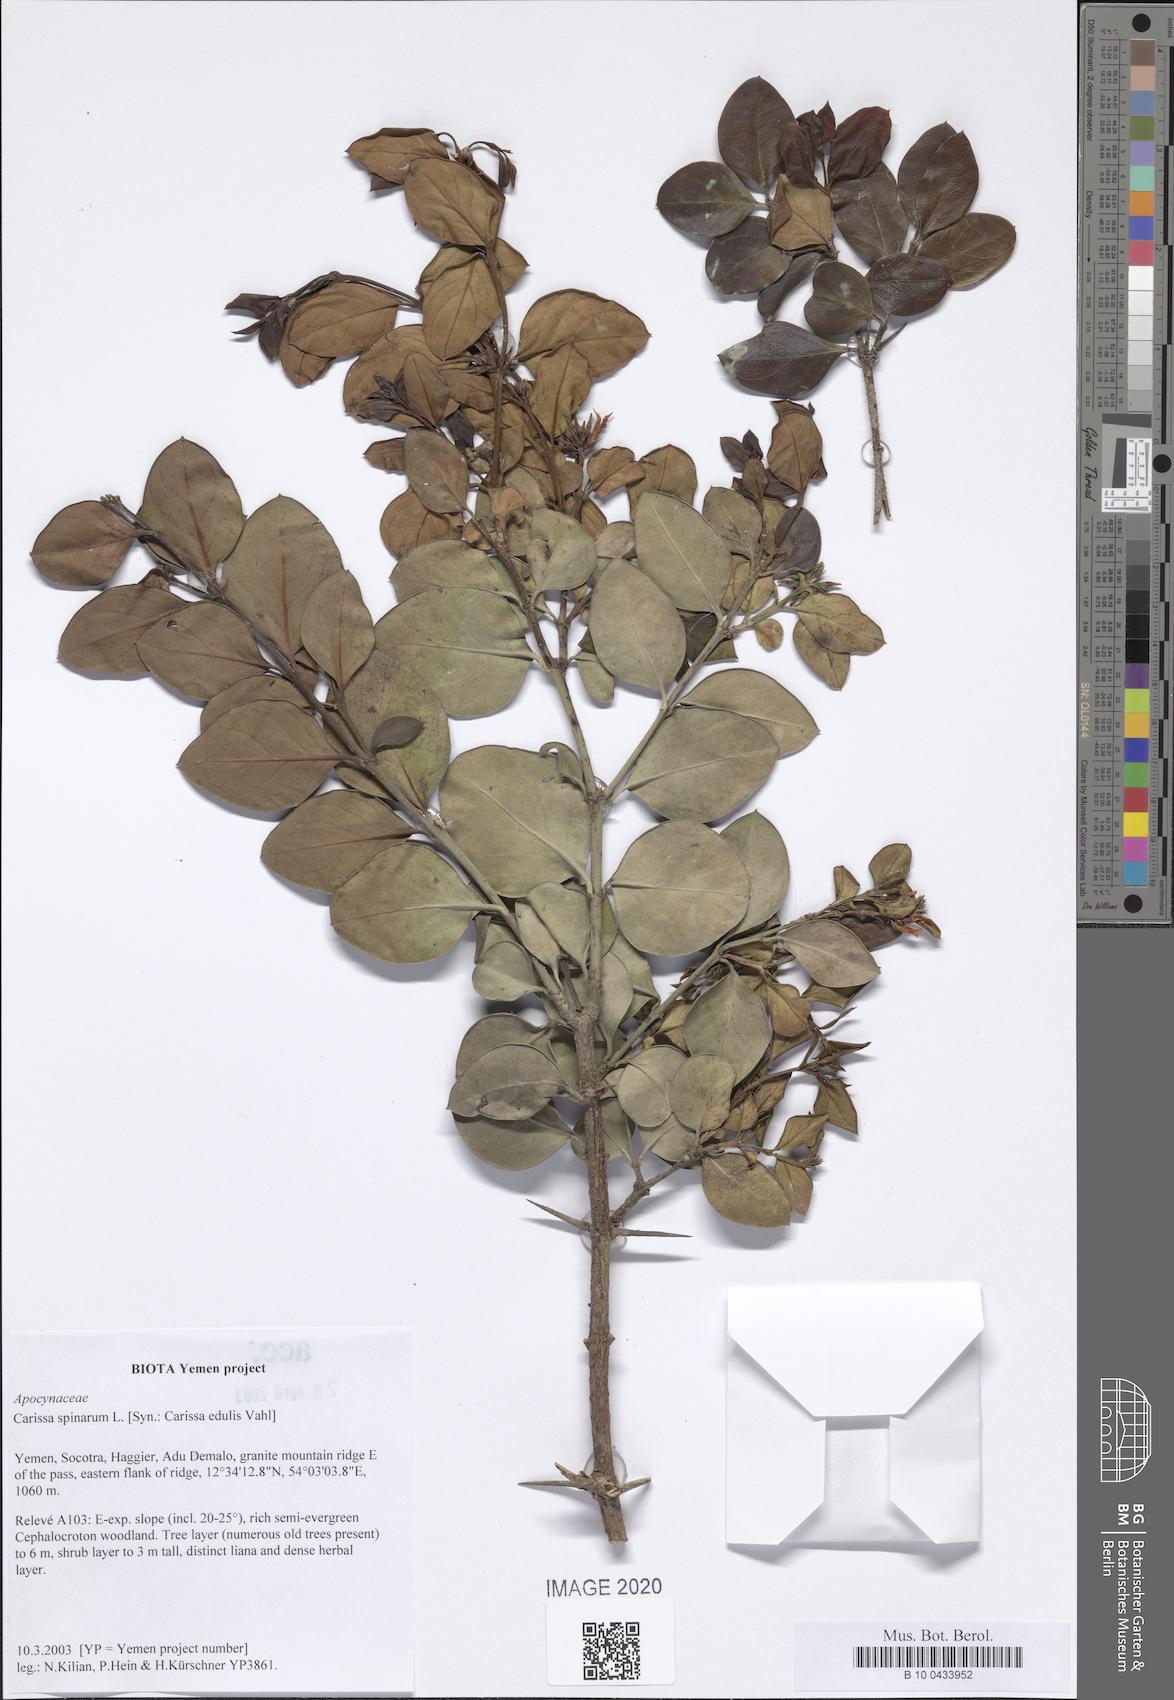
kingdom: Plantae
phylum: Tracheophyta
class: Magnoliopsida
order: Gentianales
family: Apocynaceae
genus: Carissa
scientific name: Carissa spinarum
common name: Egyptian carissa
